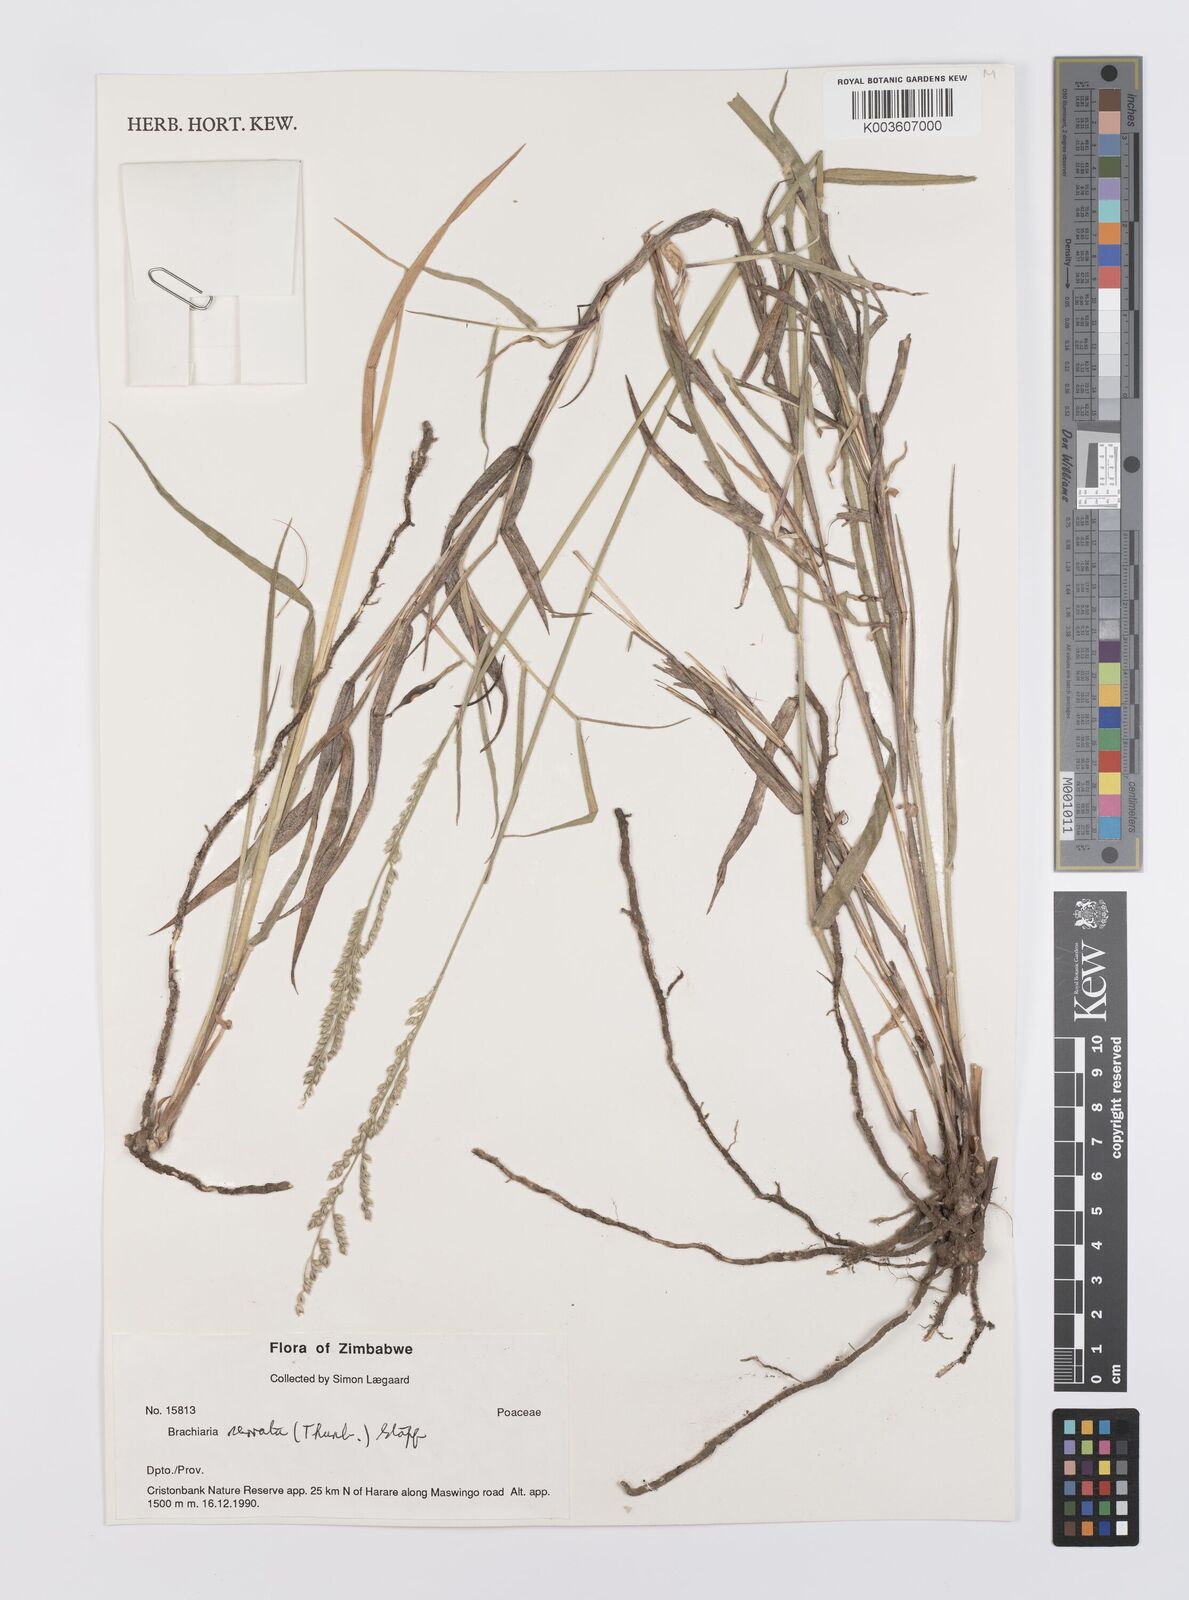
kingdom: Plantae
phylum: Tracheophyta
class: Liliopsida
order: Poales
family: Poaceae
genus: Urochloa
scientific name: Urochloa serrata
